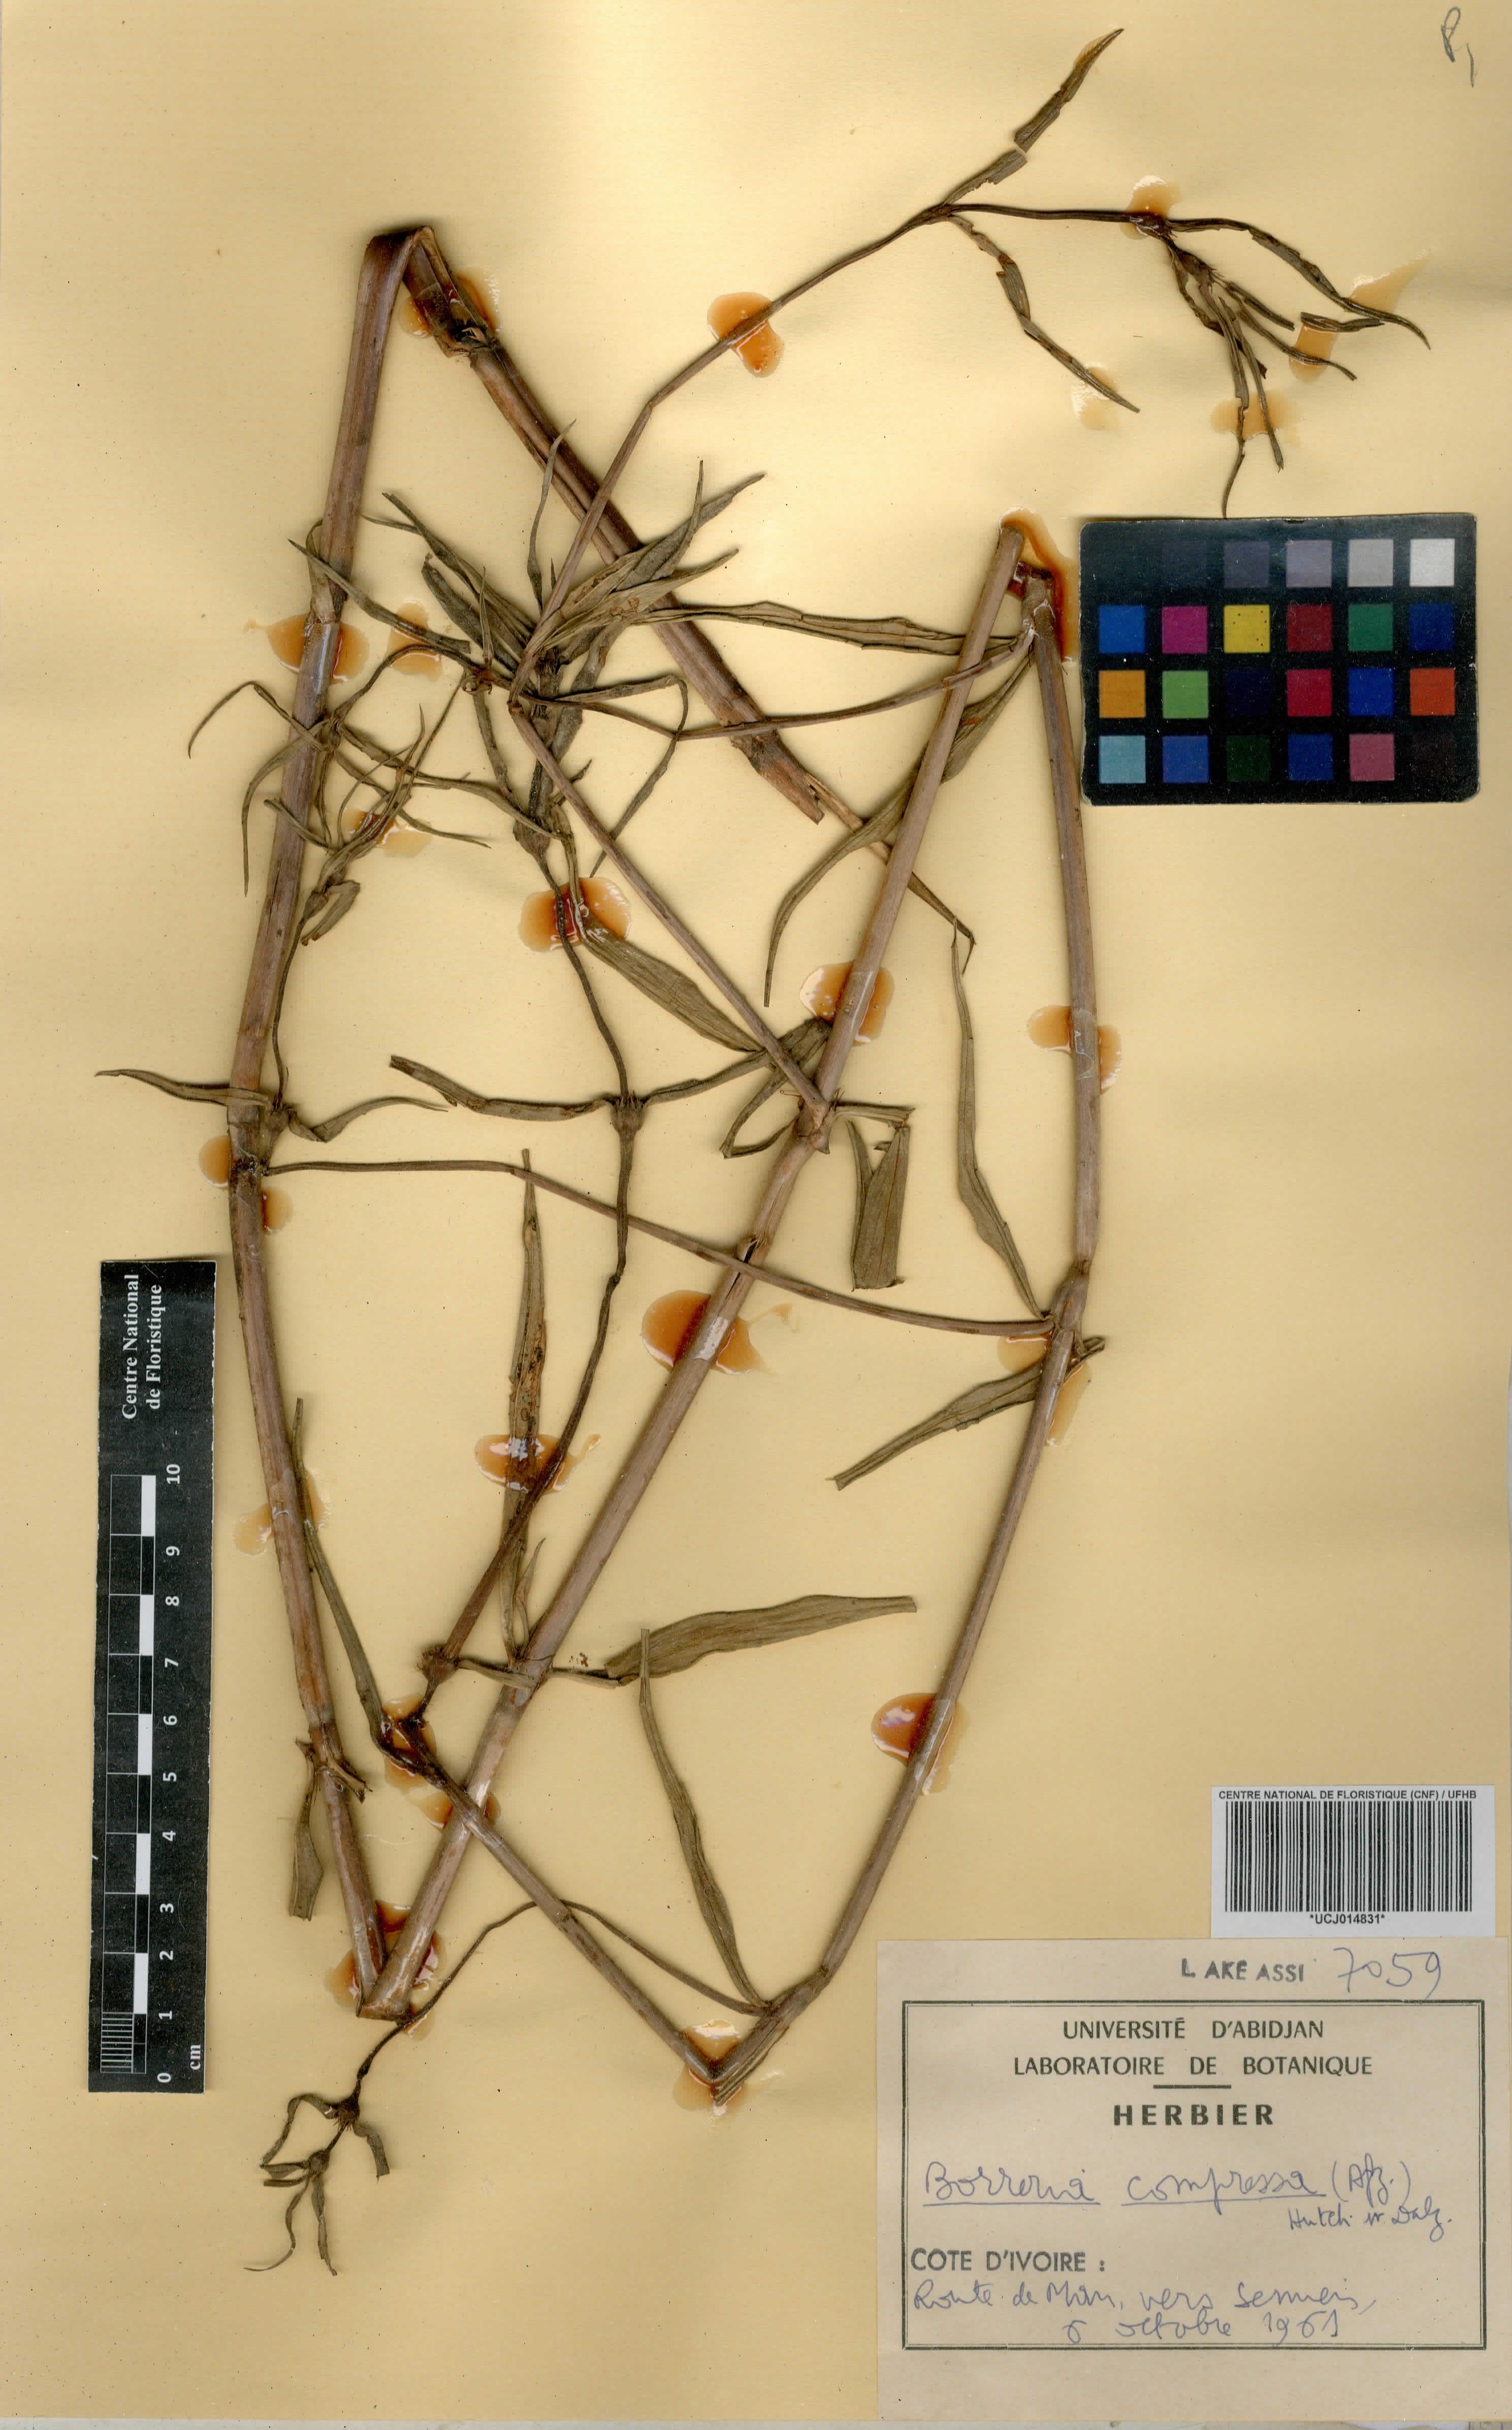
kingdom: Plantae
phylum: Tracheophyta
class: Magnoliopsida
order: Gentianales
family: Rubiaceae
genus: Spermacoce
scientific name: Spermacoce hepperiana
